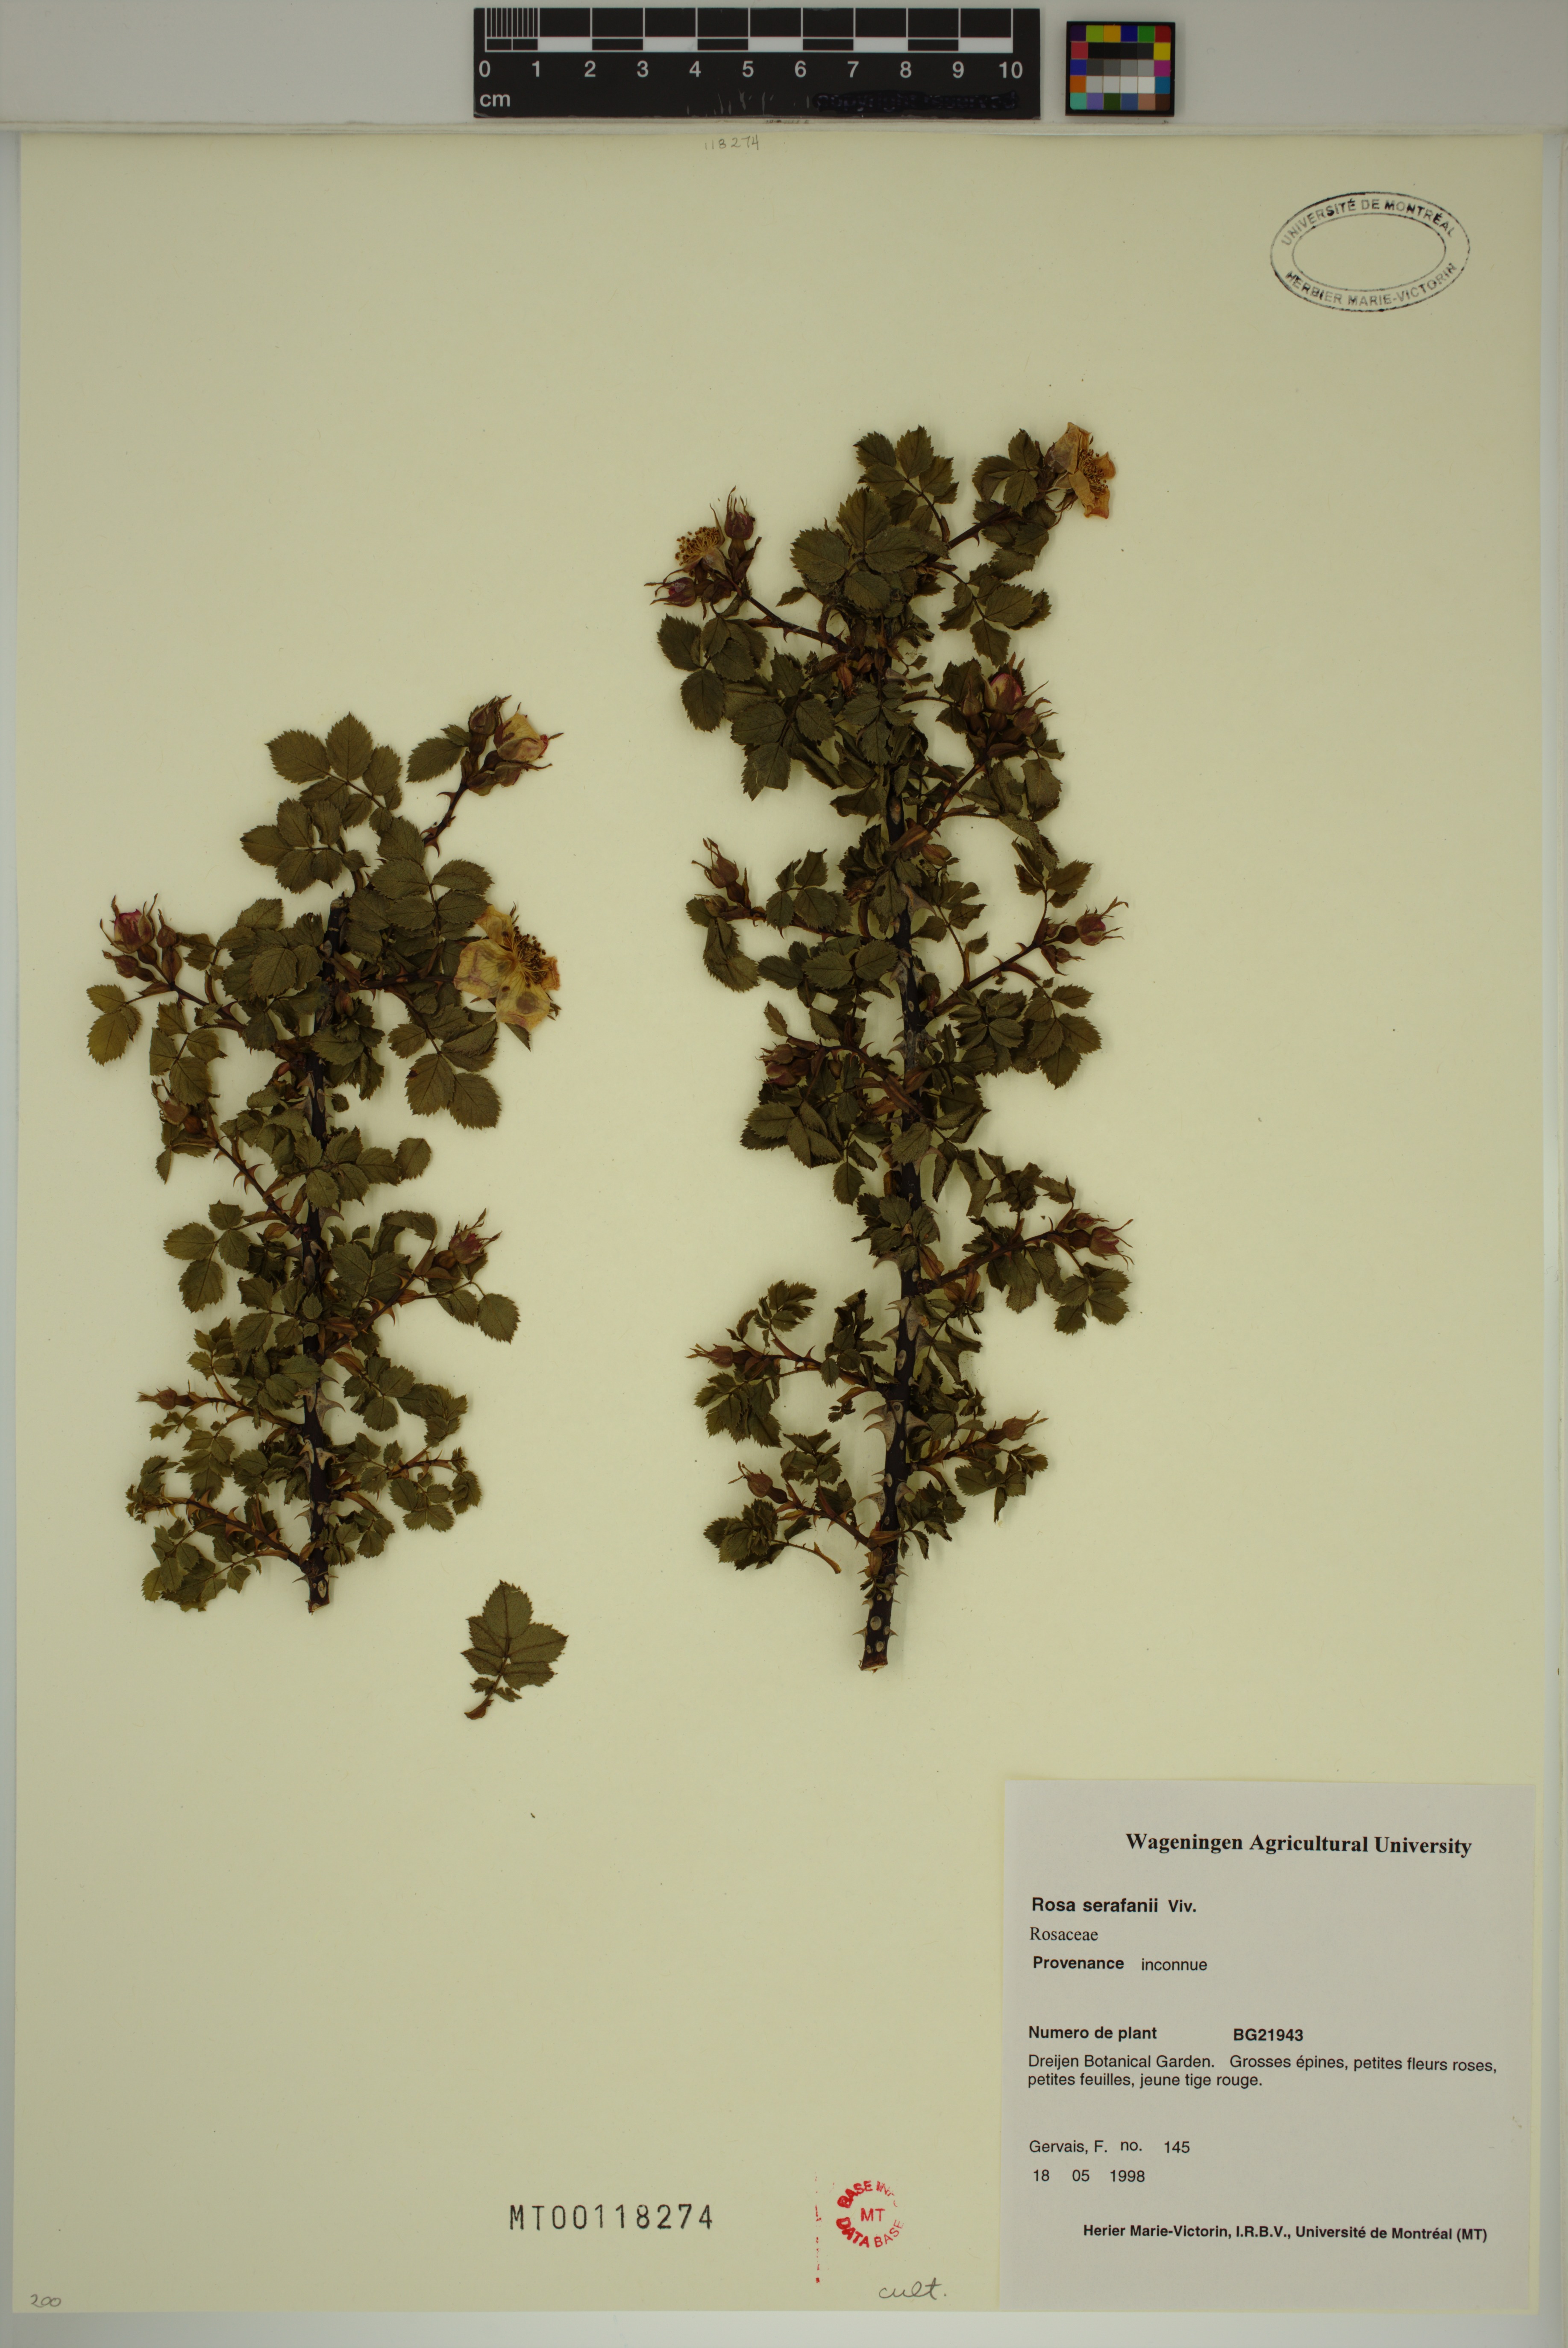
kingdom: Plantae
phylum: Tracheophyta
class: Magnoliopsida
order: Rosales
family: Rosaceae
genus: Rosa
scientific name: Rosa serafinii
